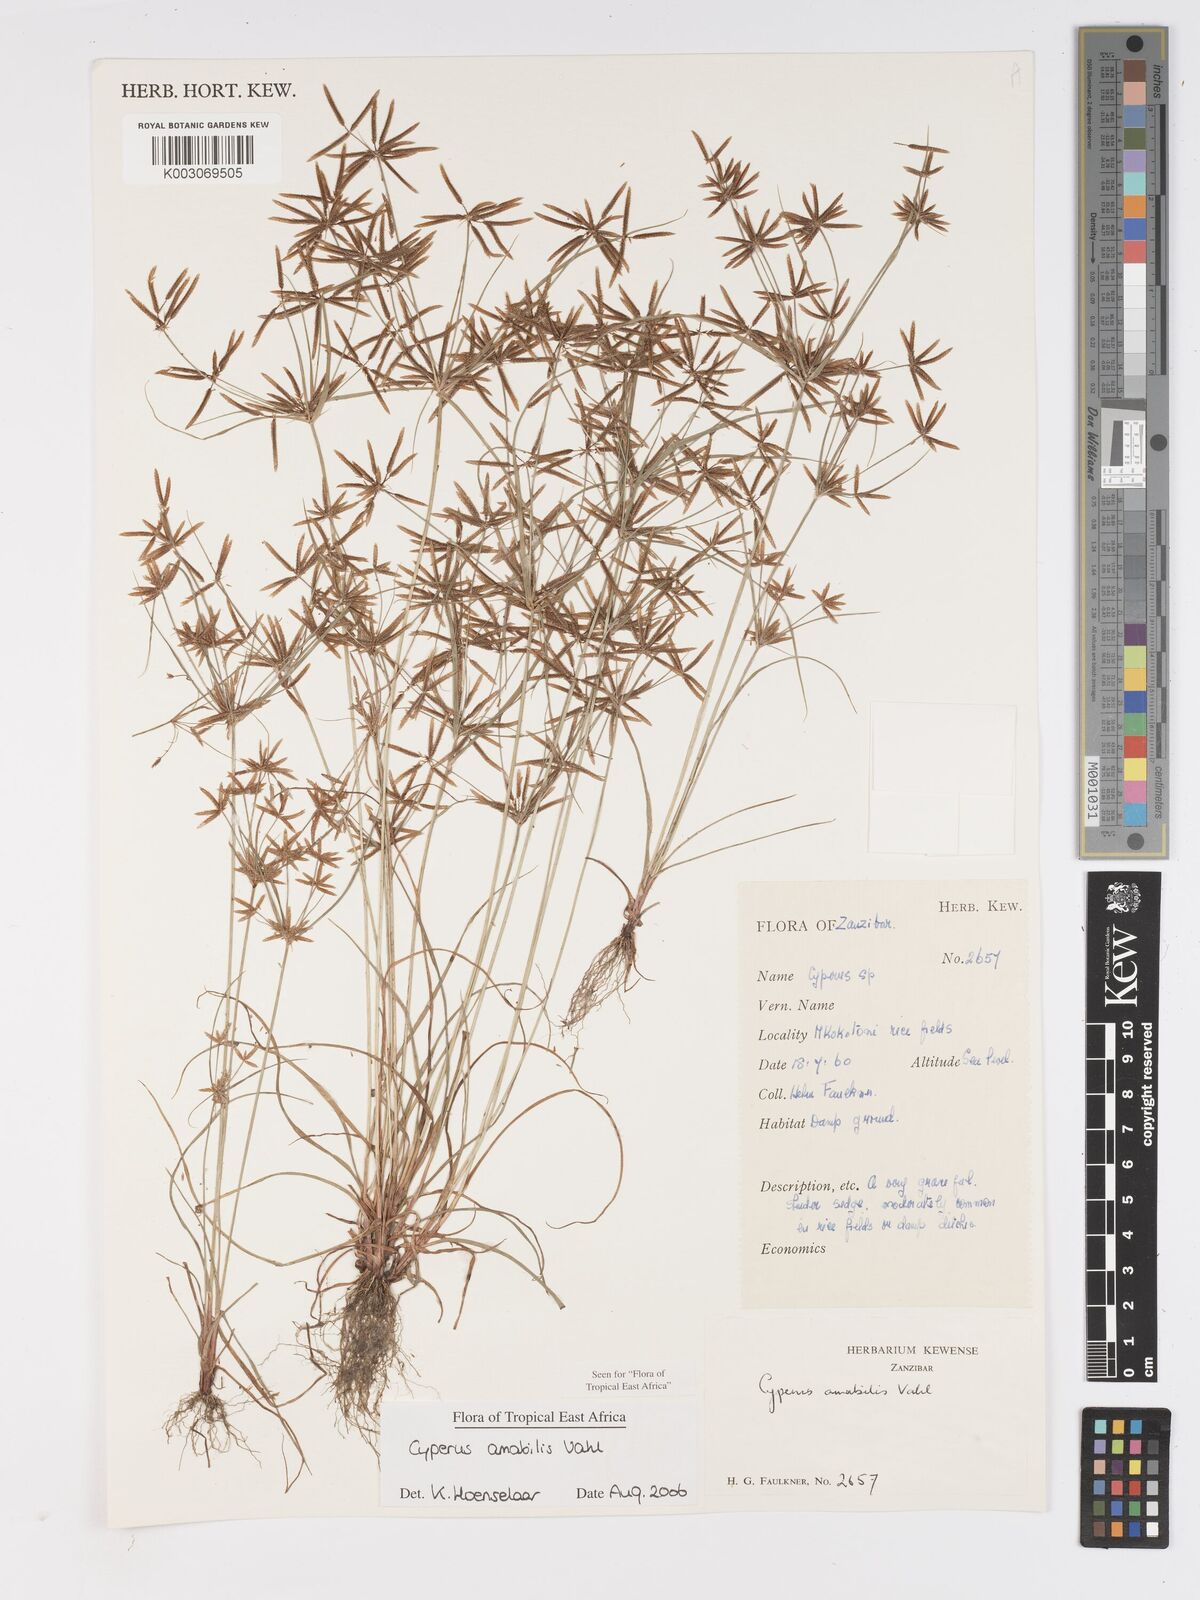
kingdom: Plantae
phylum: Tracheophyta
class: Liliopsida
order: Poales
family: Cyperaceae
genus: Cyperus
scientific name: Cyperus amabilis
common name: Foothill flat sedge
